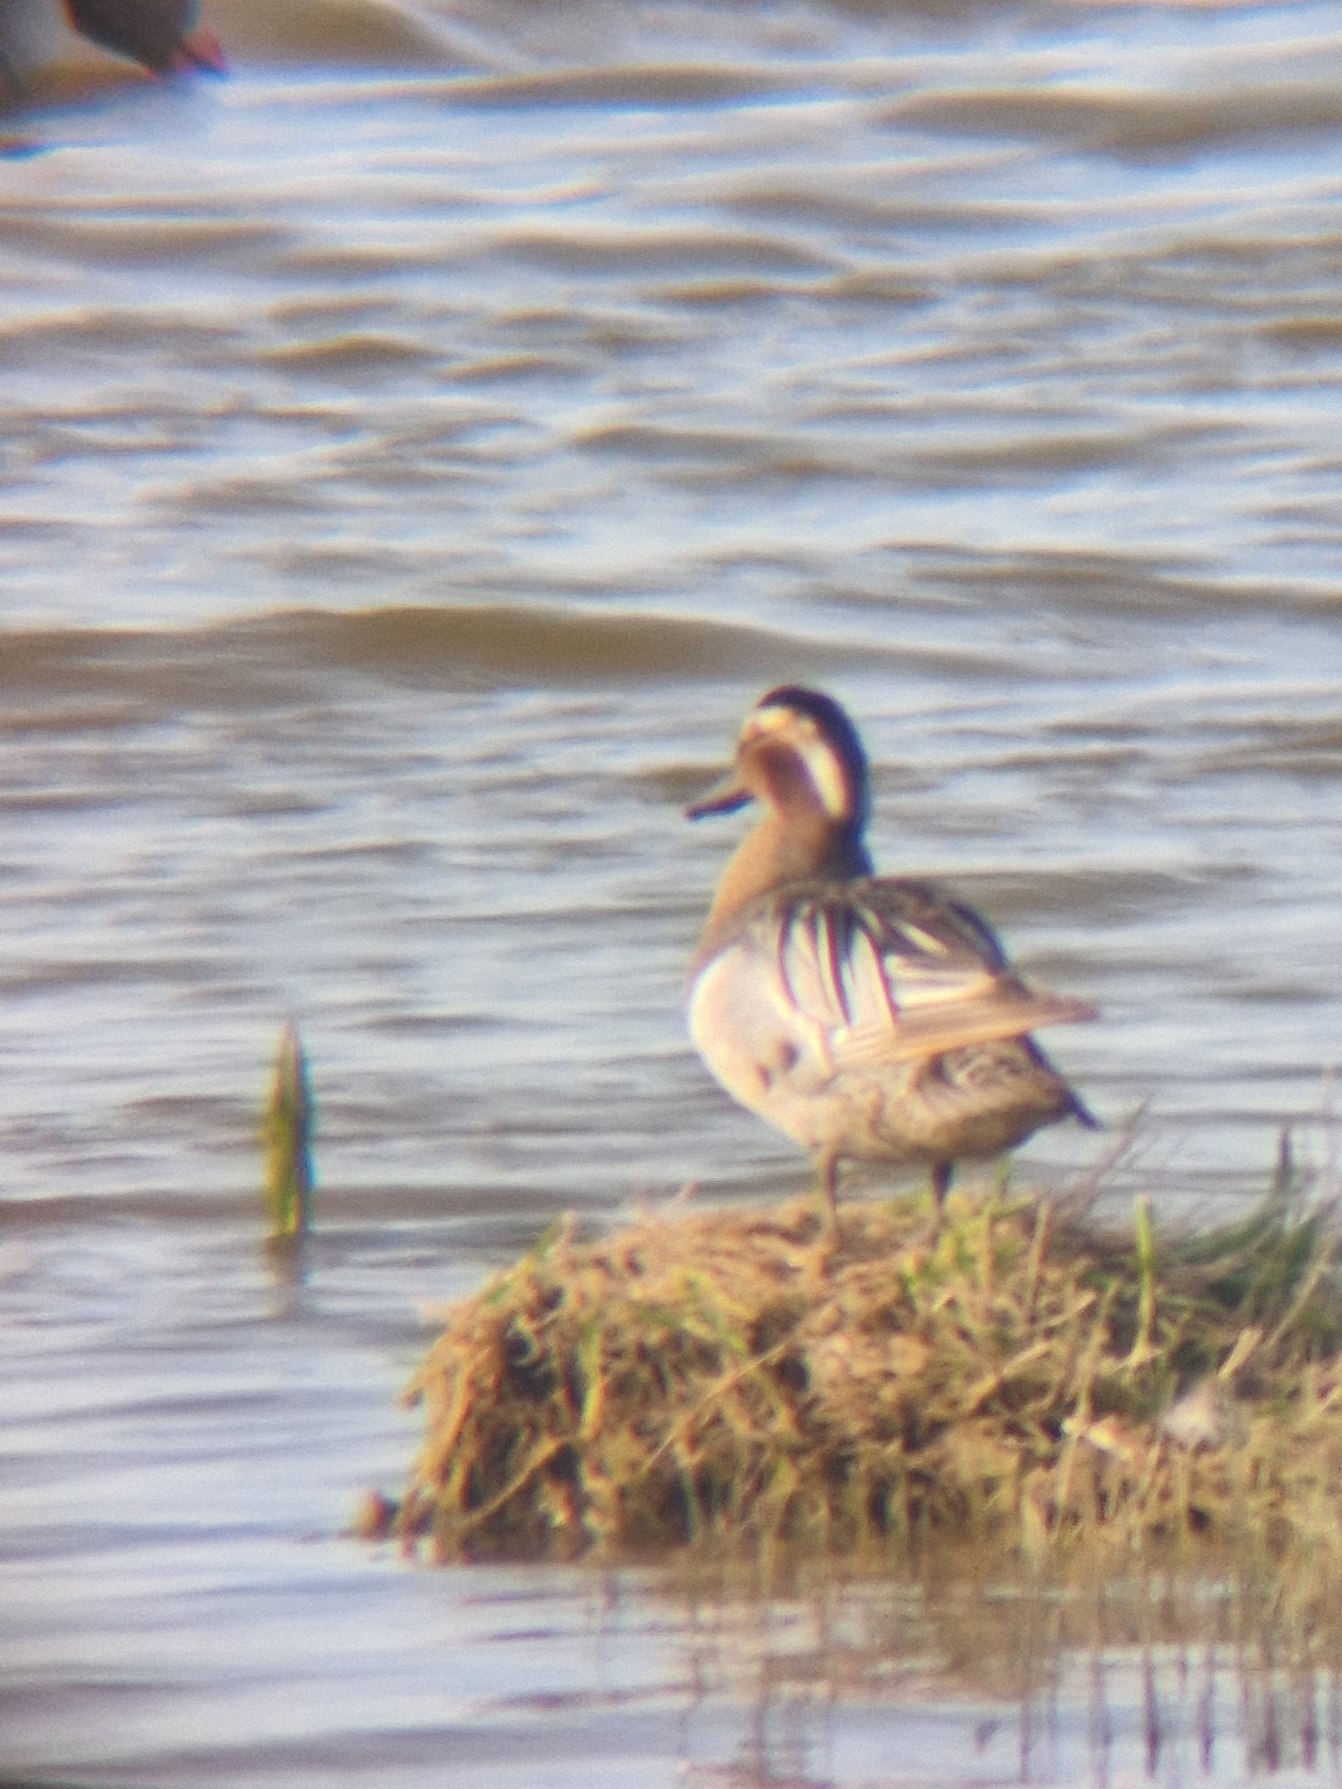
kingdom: Animalia
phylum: Chordata
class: Aves
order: Anseriformes
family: Anatidae
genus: Spatula
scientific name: Spatula querquedula
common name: Atlingand
